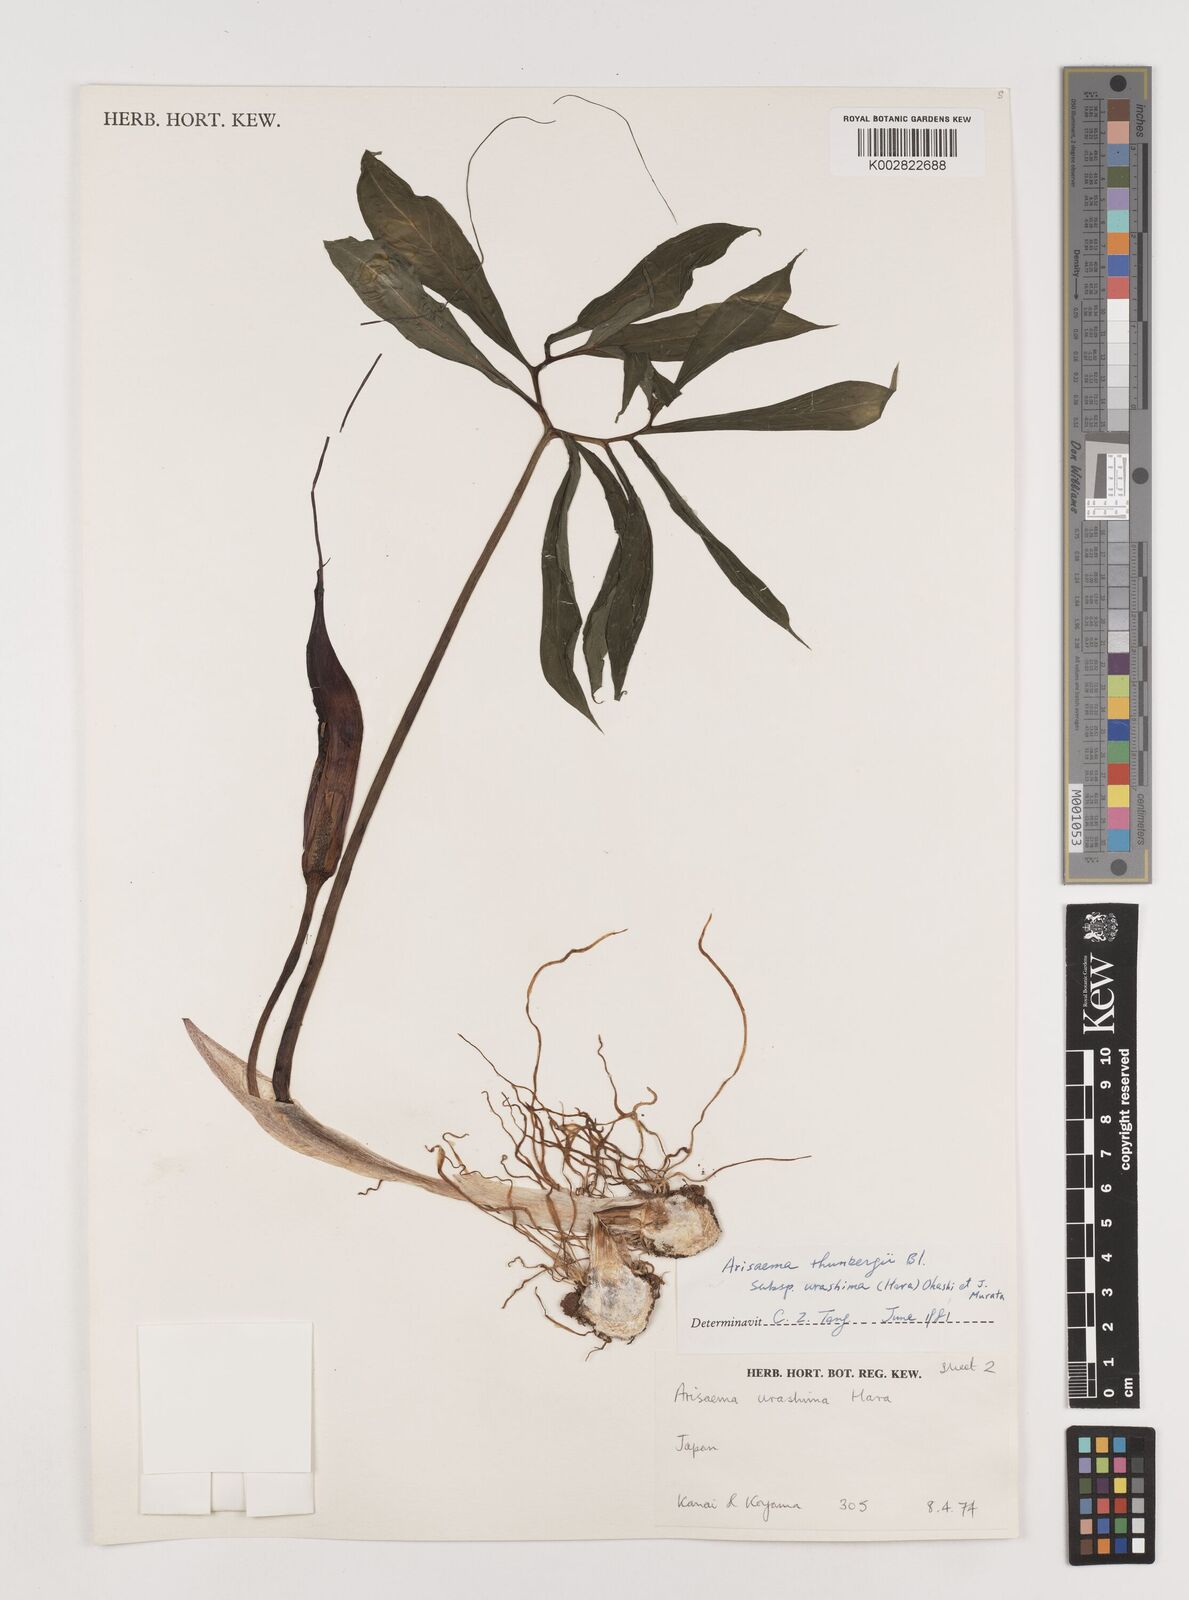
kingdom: Plantae
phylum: Tracheophyta
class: Liliopsida
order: Alismatales
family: Araceae
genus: Arisaema
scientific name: Arisaema thunbergii
